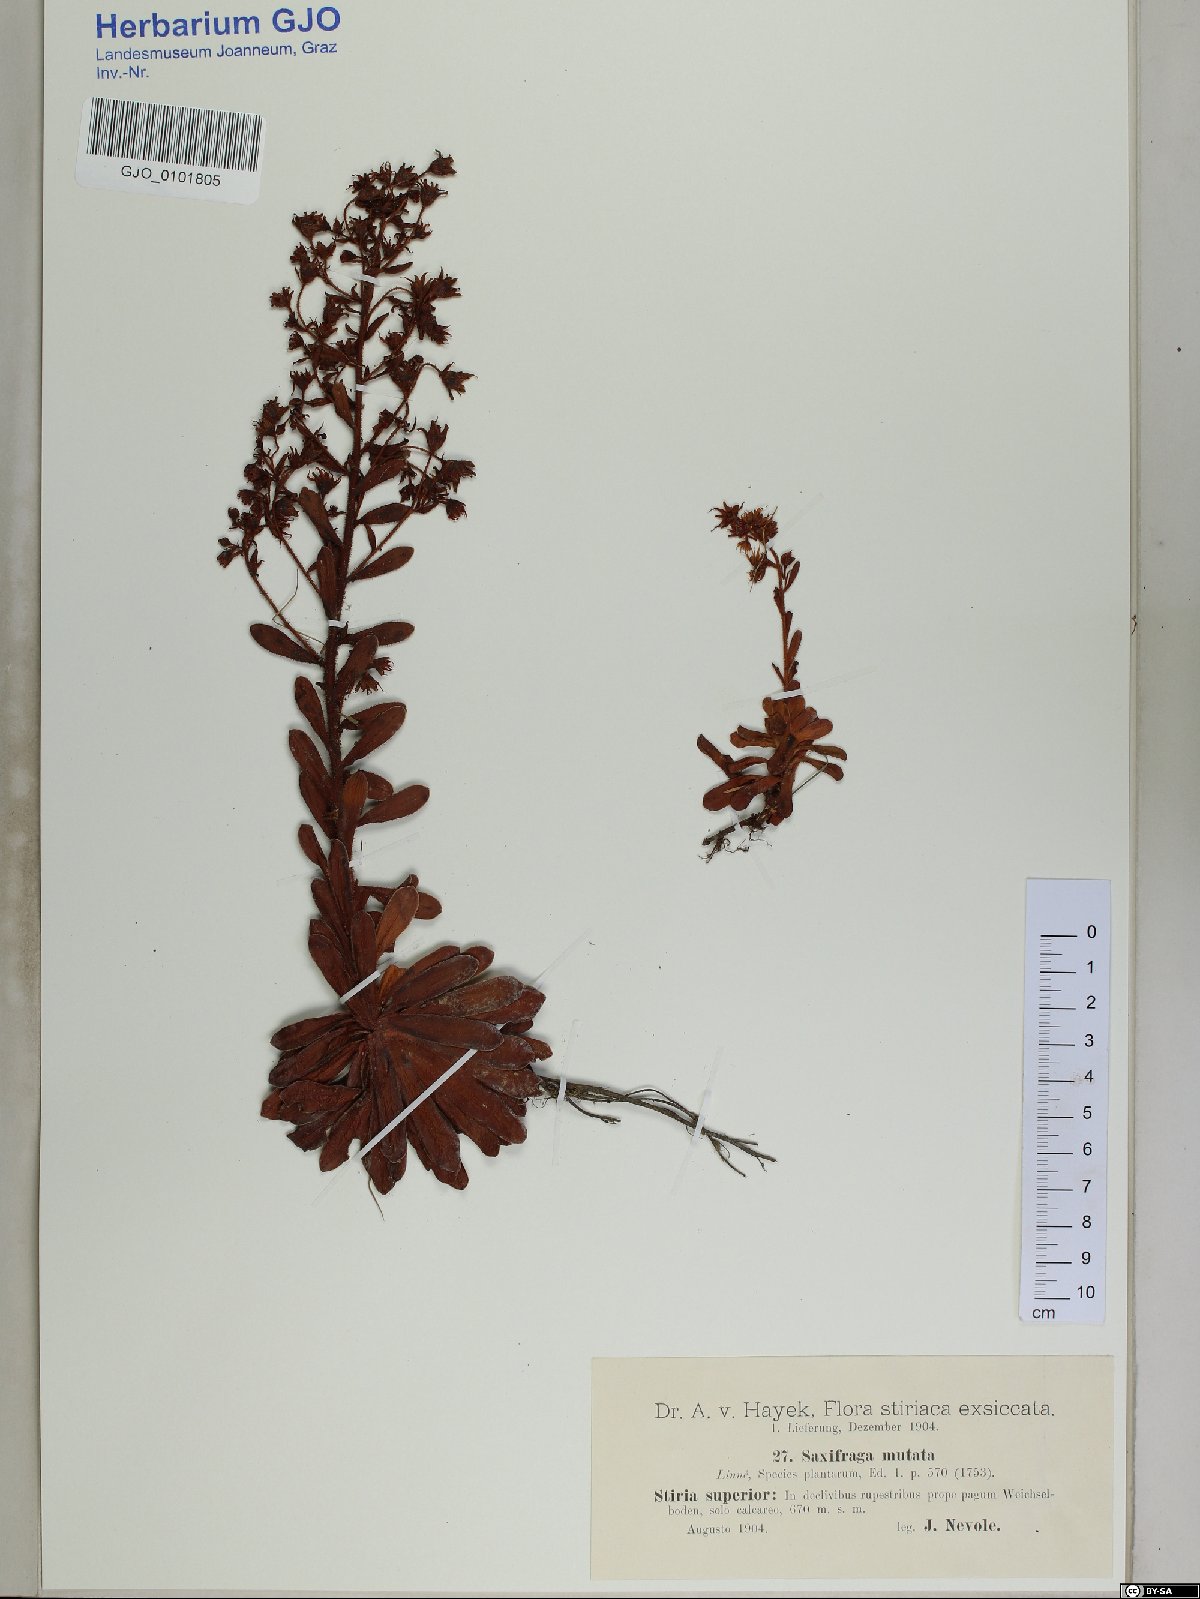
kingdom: Plantae
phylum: Tracheophyta
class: Magnoliopsida
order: Saxifragales
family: Saxifragaceae
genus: Saxifraga
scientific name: Saxifraga mutata
